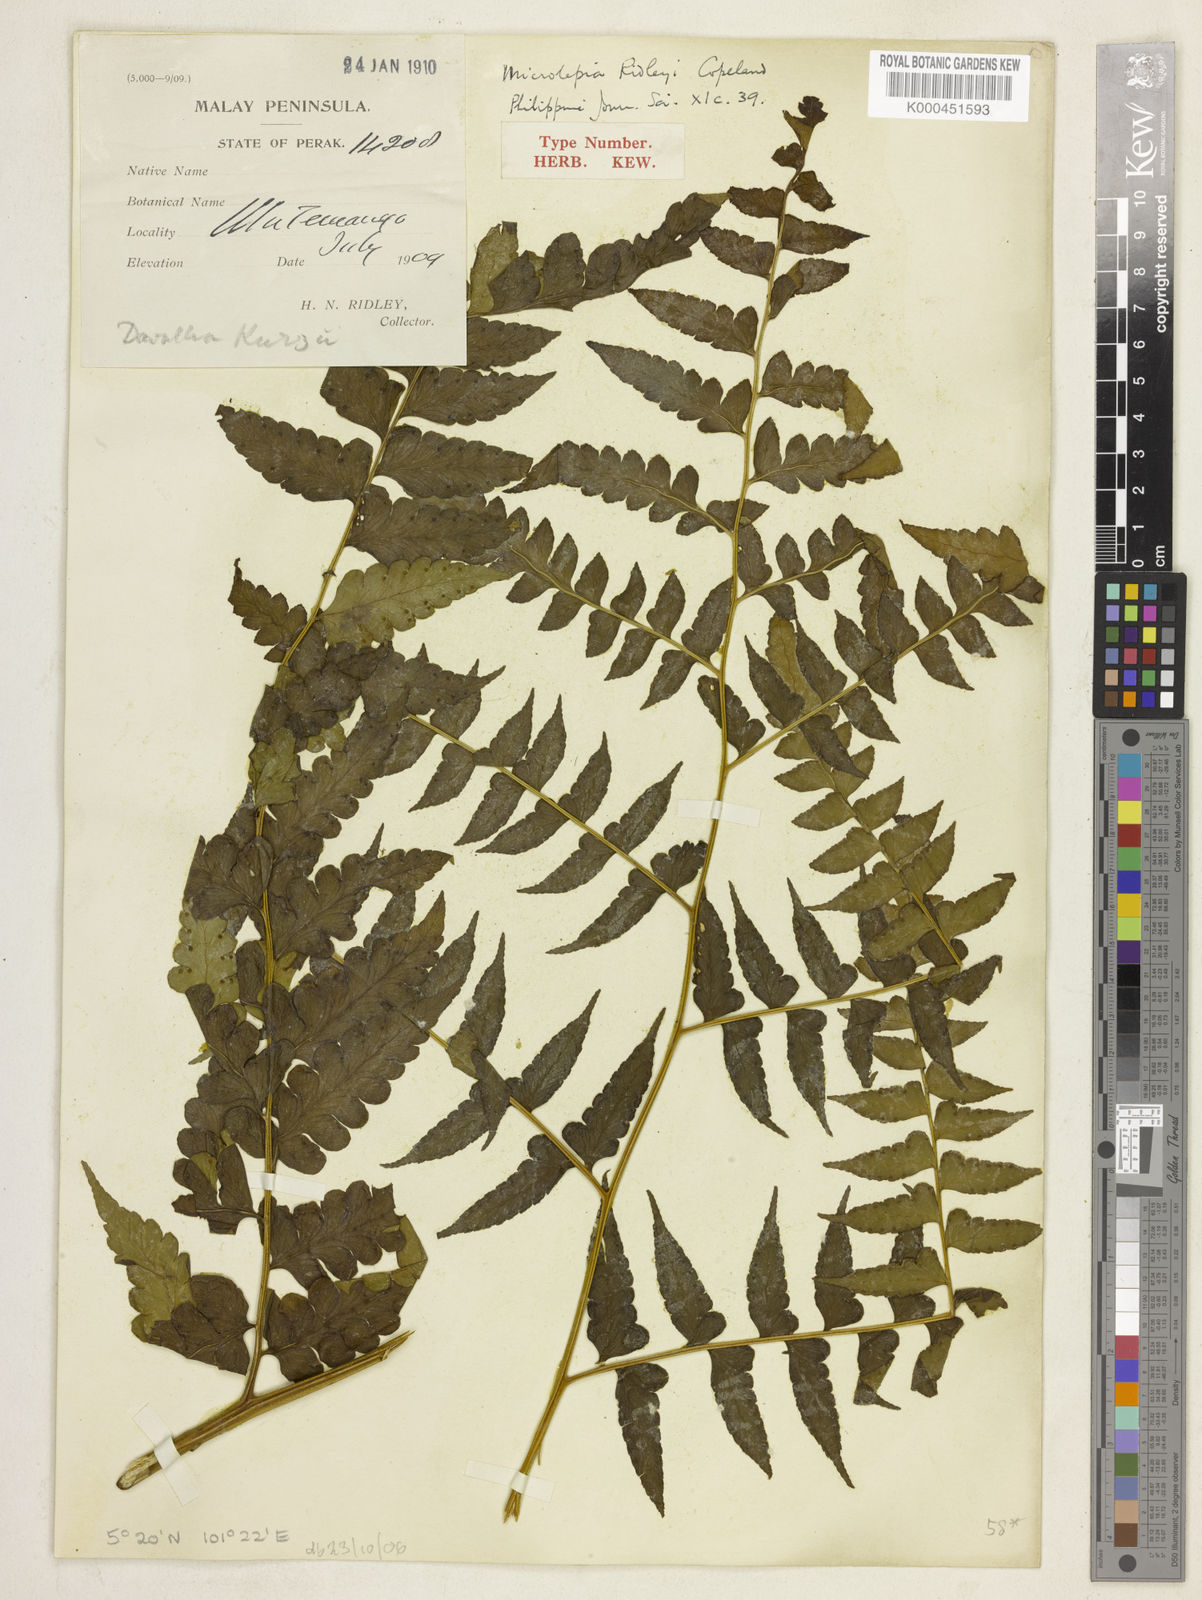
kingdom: Plantae
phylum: Tracheophyta
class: Polypodiopsida
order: Polypodiales
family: Dennstaedtiaceae
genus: Microlepia
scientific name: Microlepia ridleyi
